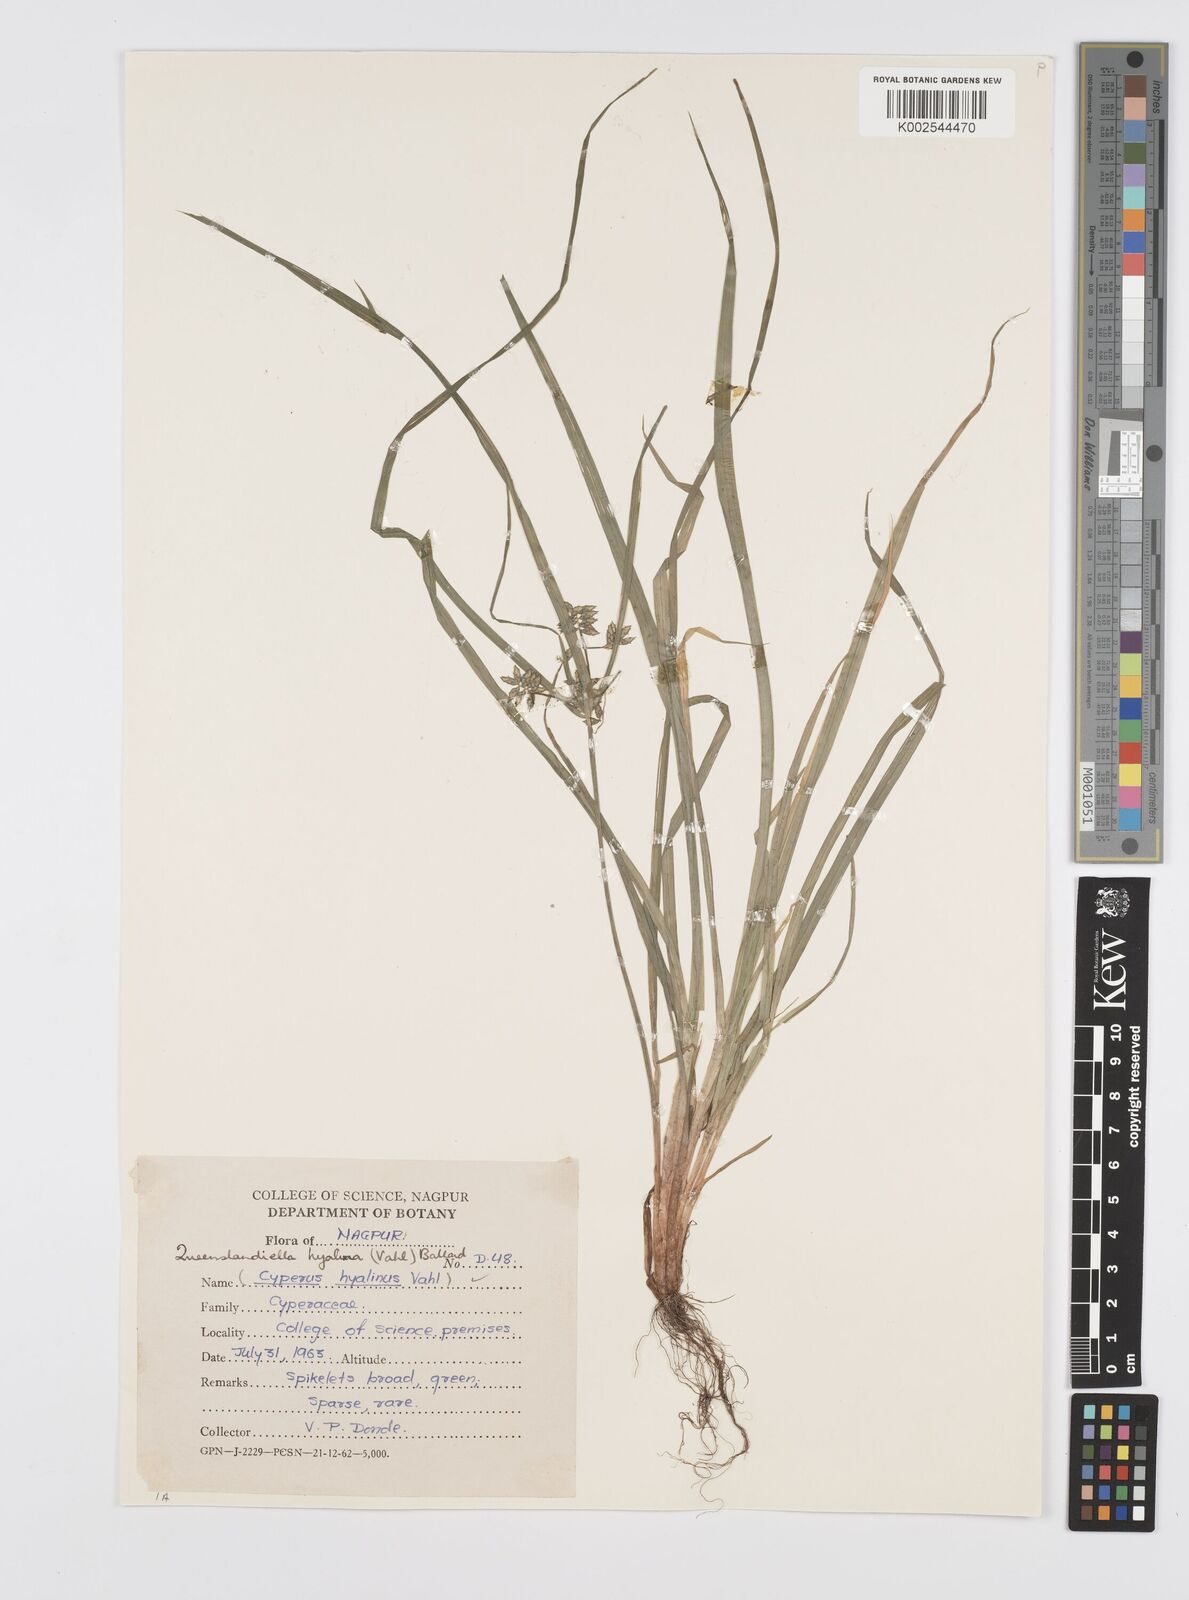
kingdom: Plantae
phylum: Tracheophyta
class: Liliopsida
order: Poales
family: Cyperaceae
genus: Cyperus
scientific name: Cyperus hyalinus
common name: Queensland sedge
